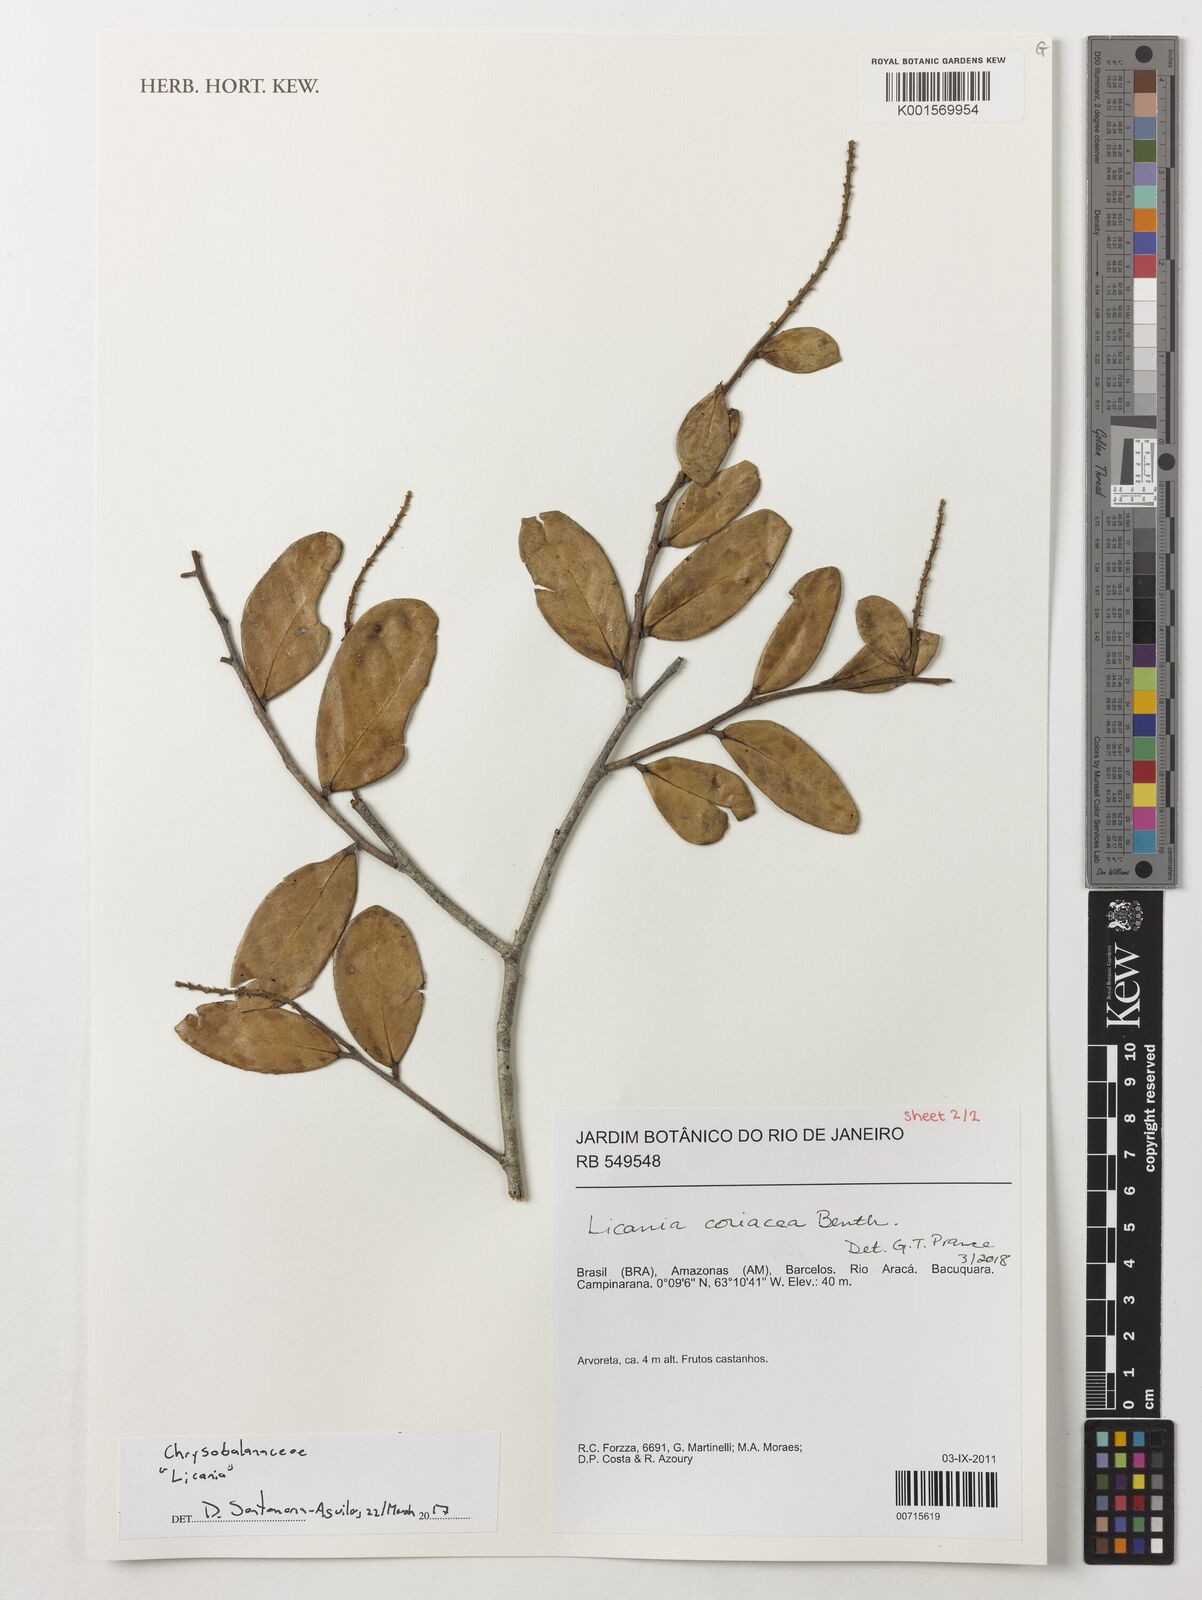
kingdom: Plantae
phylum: Tracheophyta
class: Magnoliopsida
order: Malpighiales
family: Chrysobalanaceae
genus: Licania
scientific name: Licania coriacea
